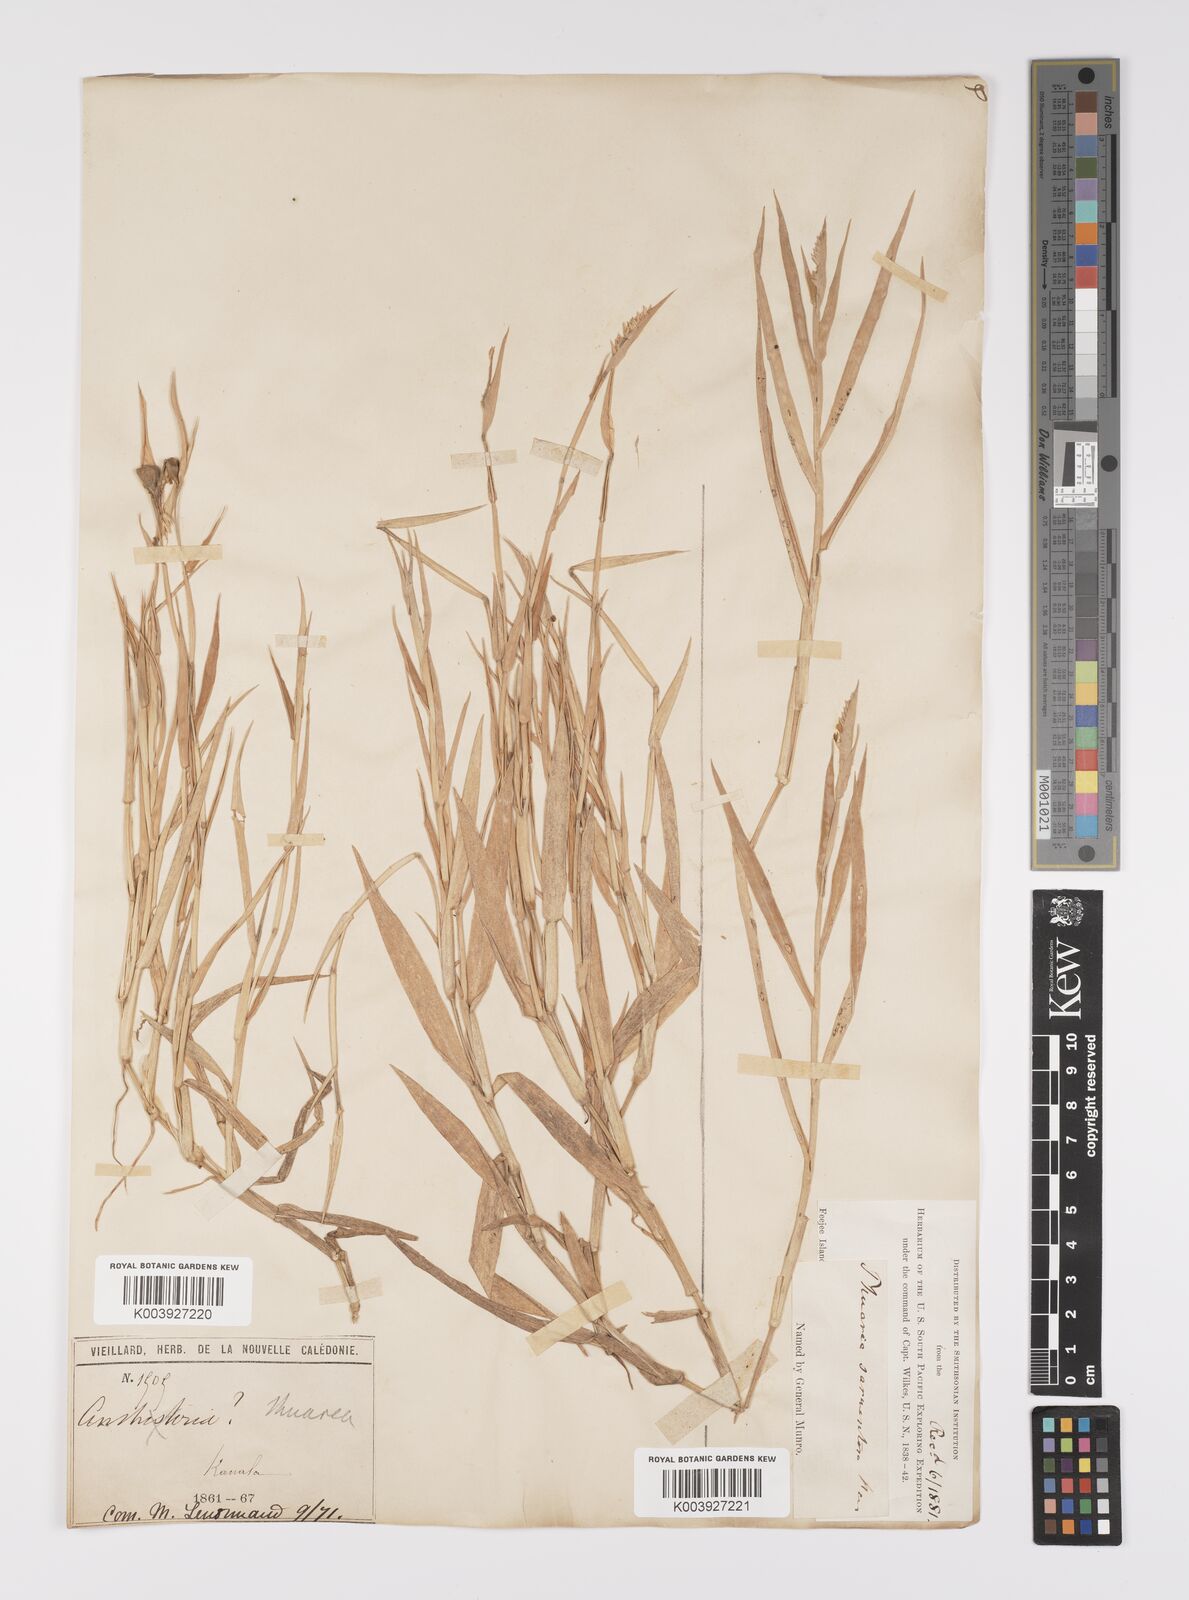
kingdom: Plantae
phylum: Tracheophyta
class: Liliopsida
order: Poales
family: Poaceae
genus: Thuarea
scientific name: Thuarea involuta
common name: Tropical beach grass
